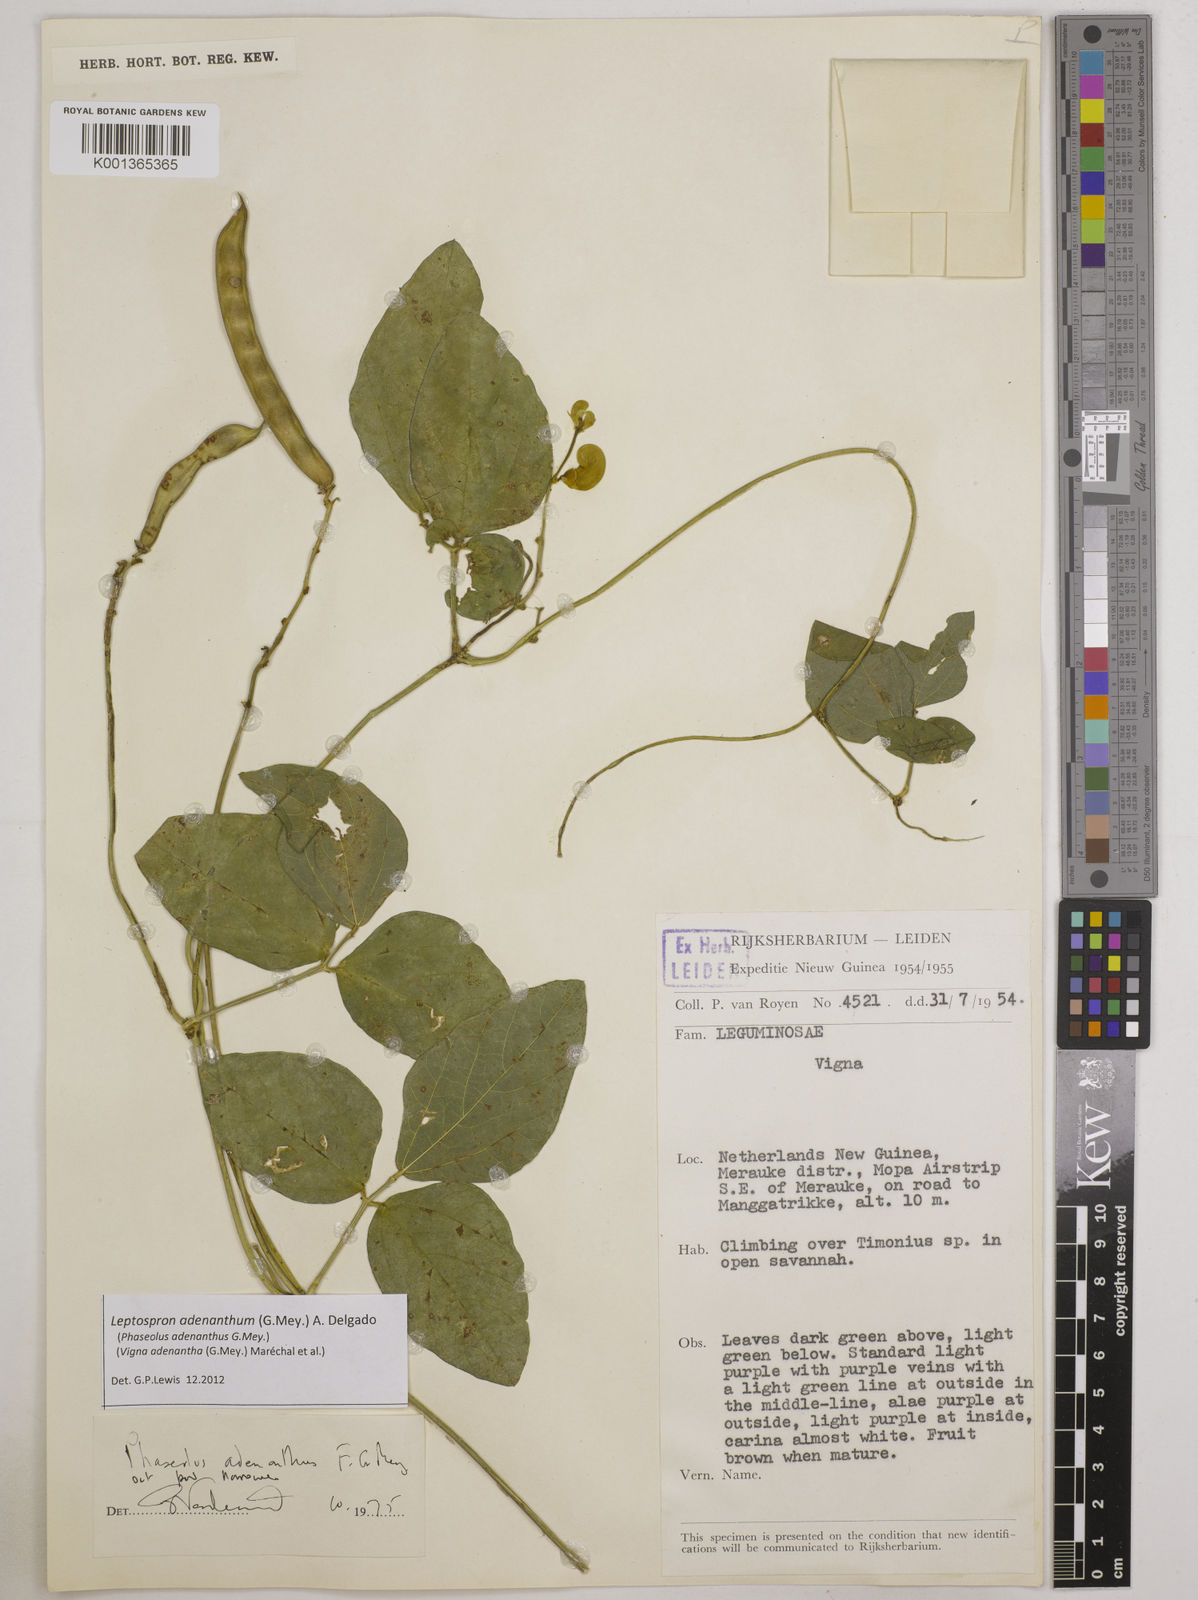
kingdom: Plantae
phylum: Tracheophyta
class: Magnoliopsida
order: Fabales
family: Fabaceae
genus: Leptospron
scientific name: Leptospron adenanthum
